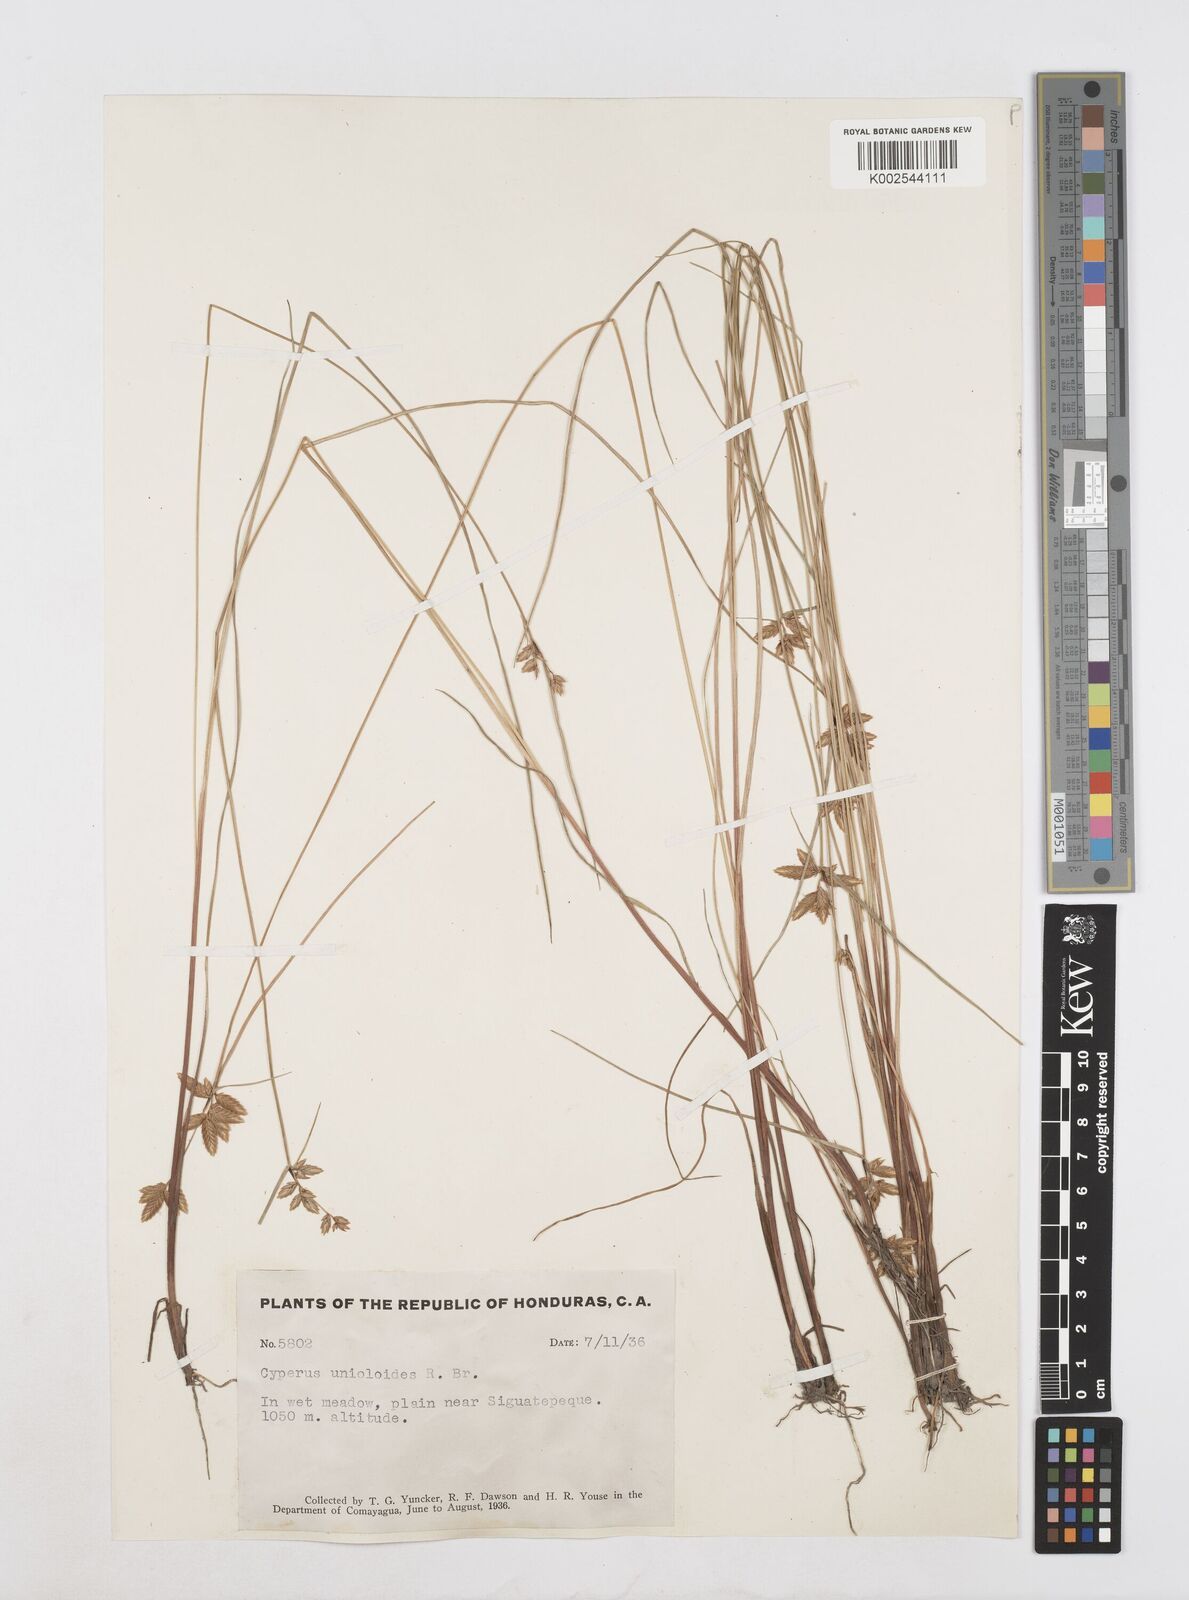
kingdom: Plantae
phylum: Tracheophyta
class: Liliopsida
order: Poales
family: Cyperaceae
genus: Cyperus
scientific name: Cyperus unioloides
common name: Uniola flatsedge
